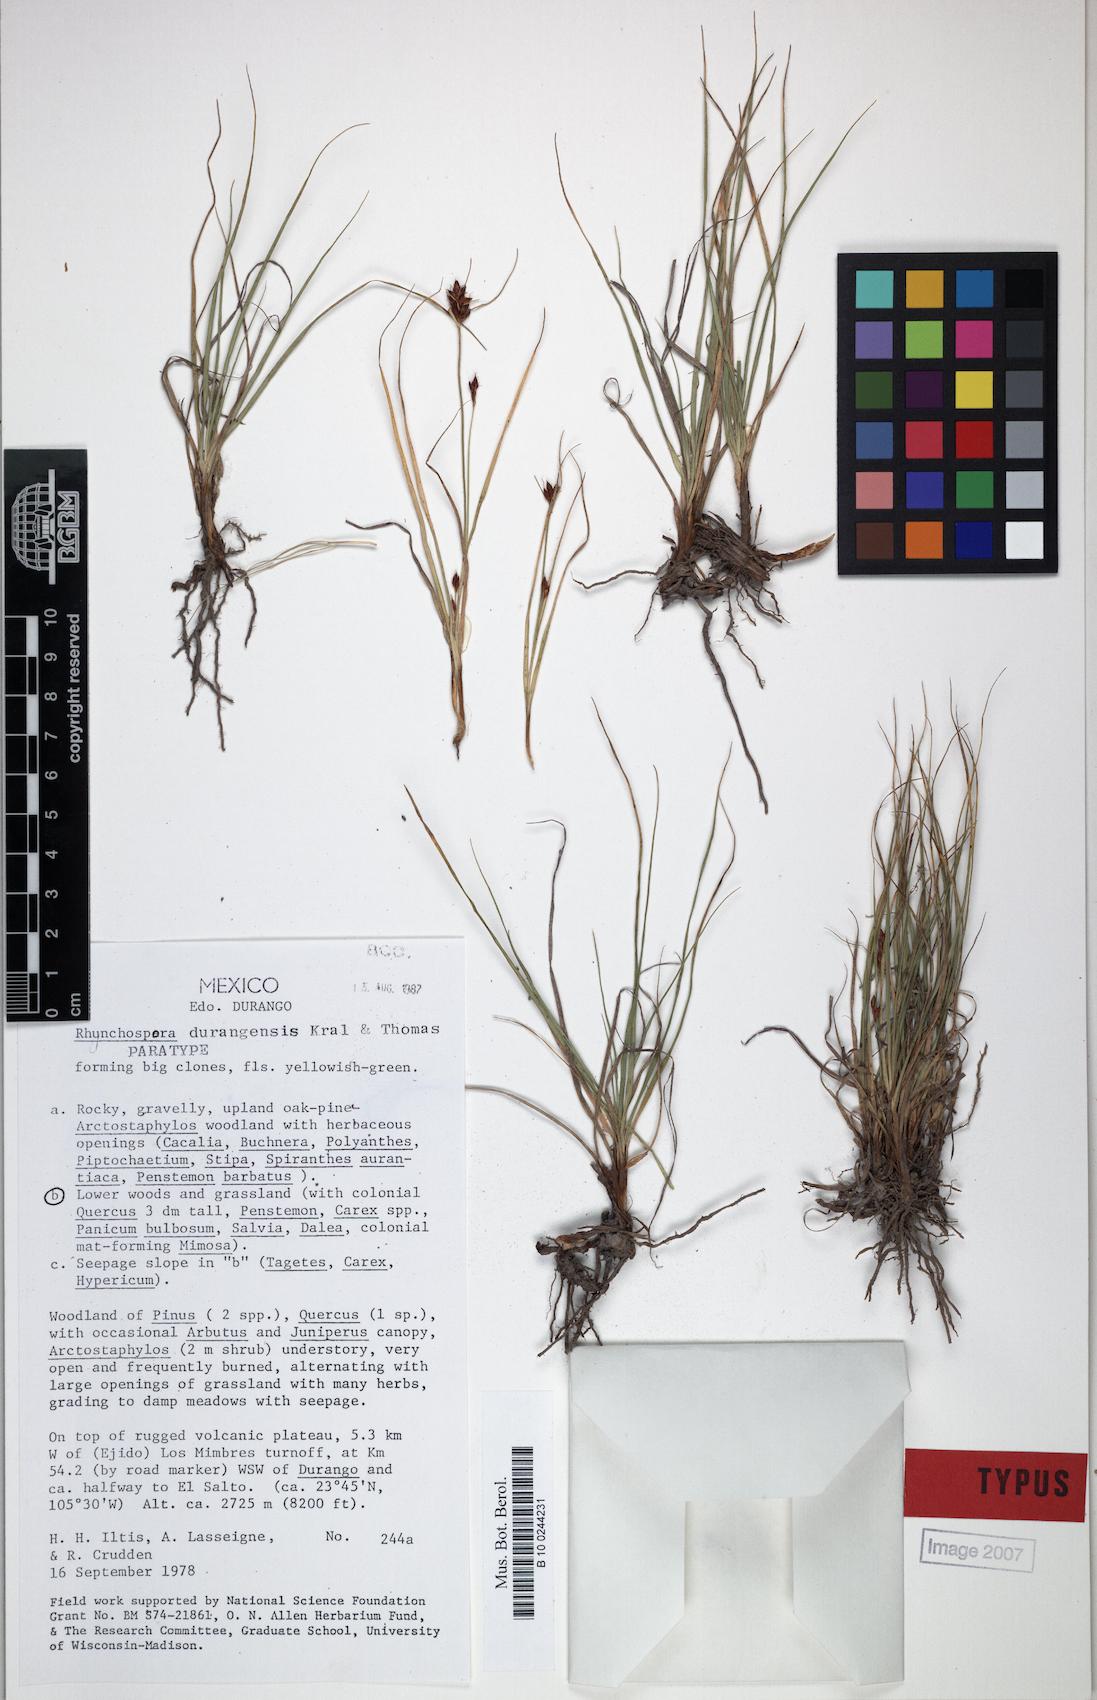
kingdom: Plantae
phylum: Tracheophyta
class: Liliopsida
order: Poales
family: Cyperaceae
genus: Rhynchospora
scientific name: Rhynchospora durangensis
